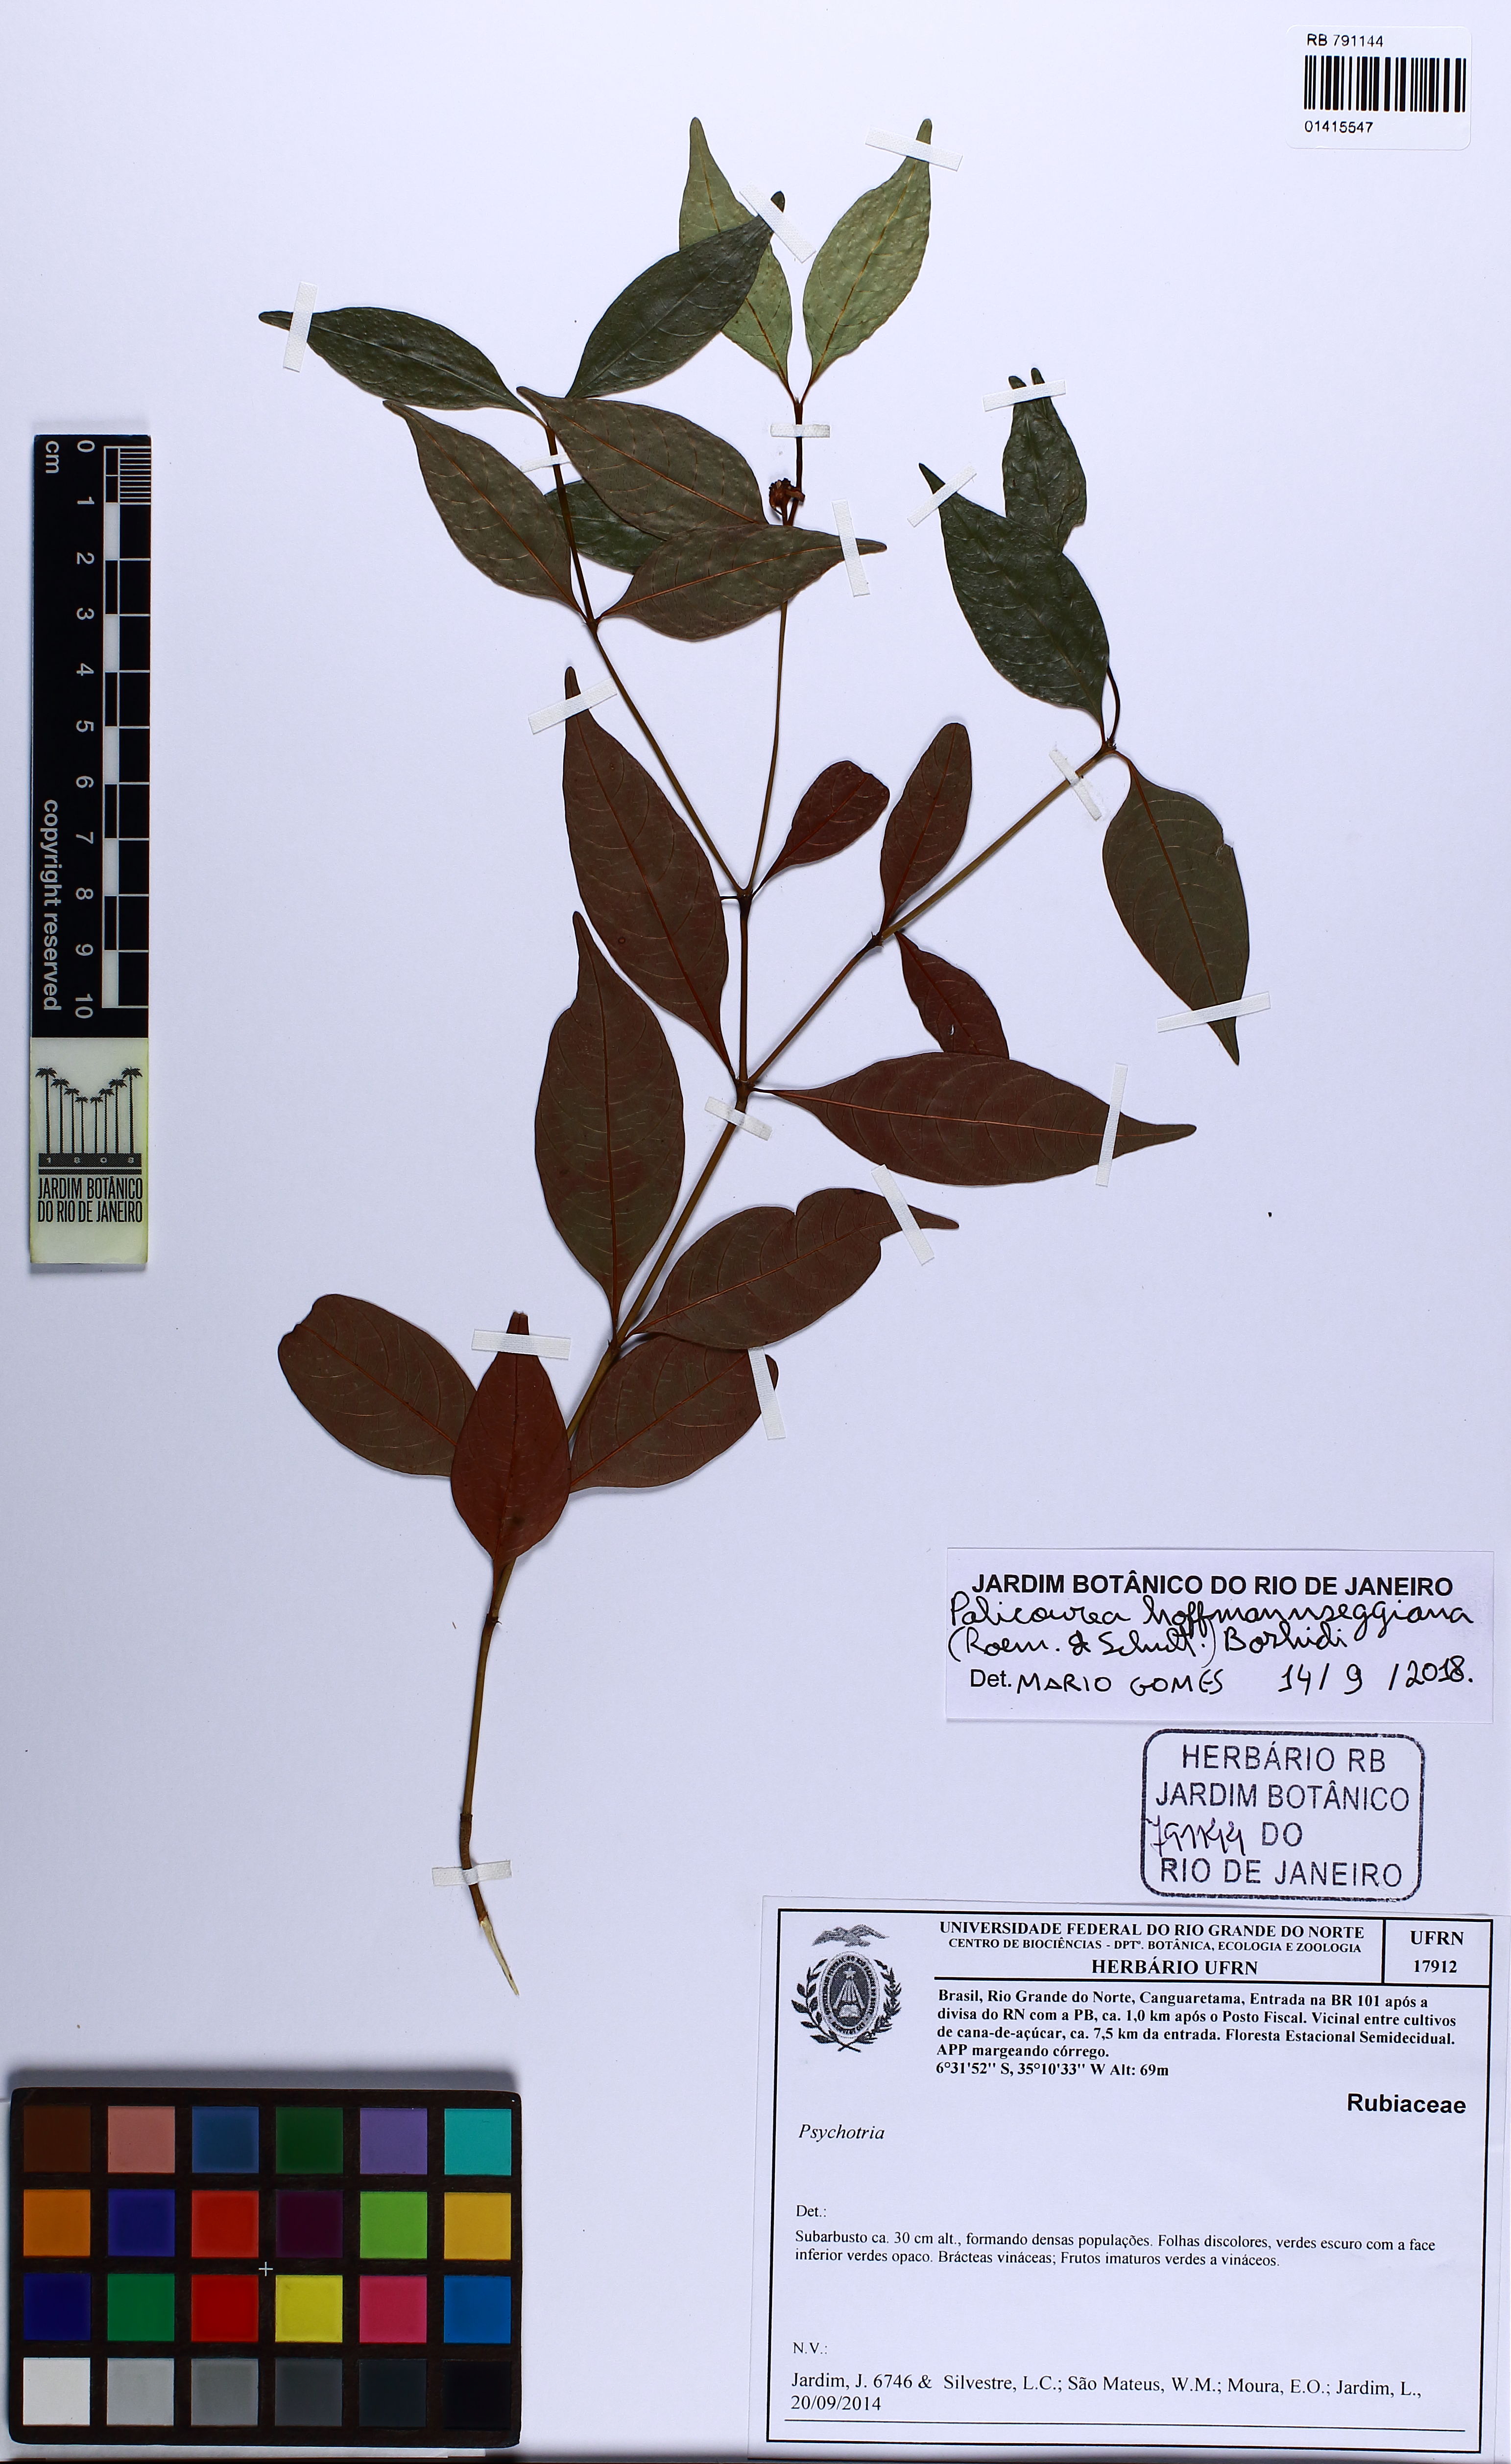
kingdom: Plantae
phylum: Tracheophyta
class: Magnoliopsida
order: Gentianales
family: Rubiaceae
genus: Palicourea
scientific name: Palicourea hoffmannseggiana
